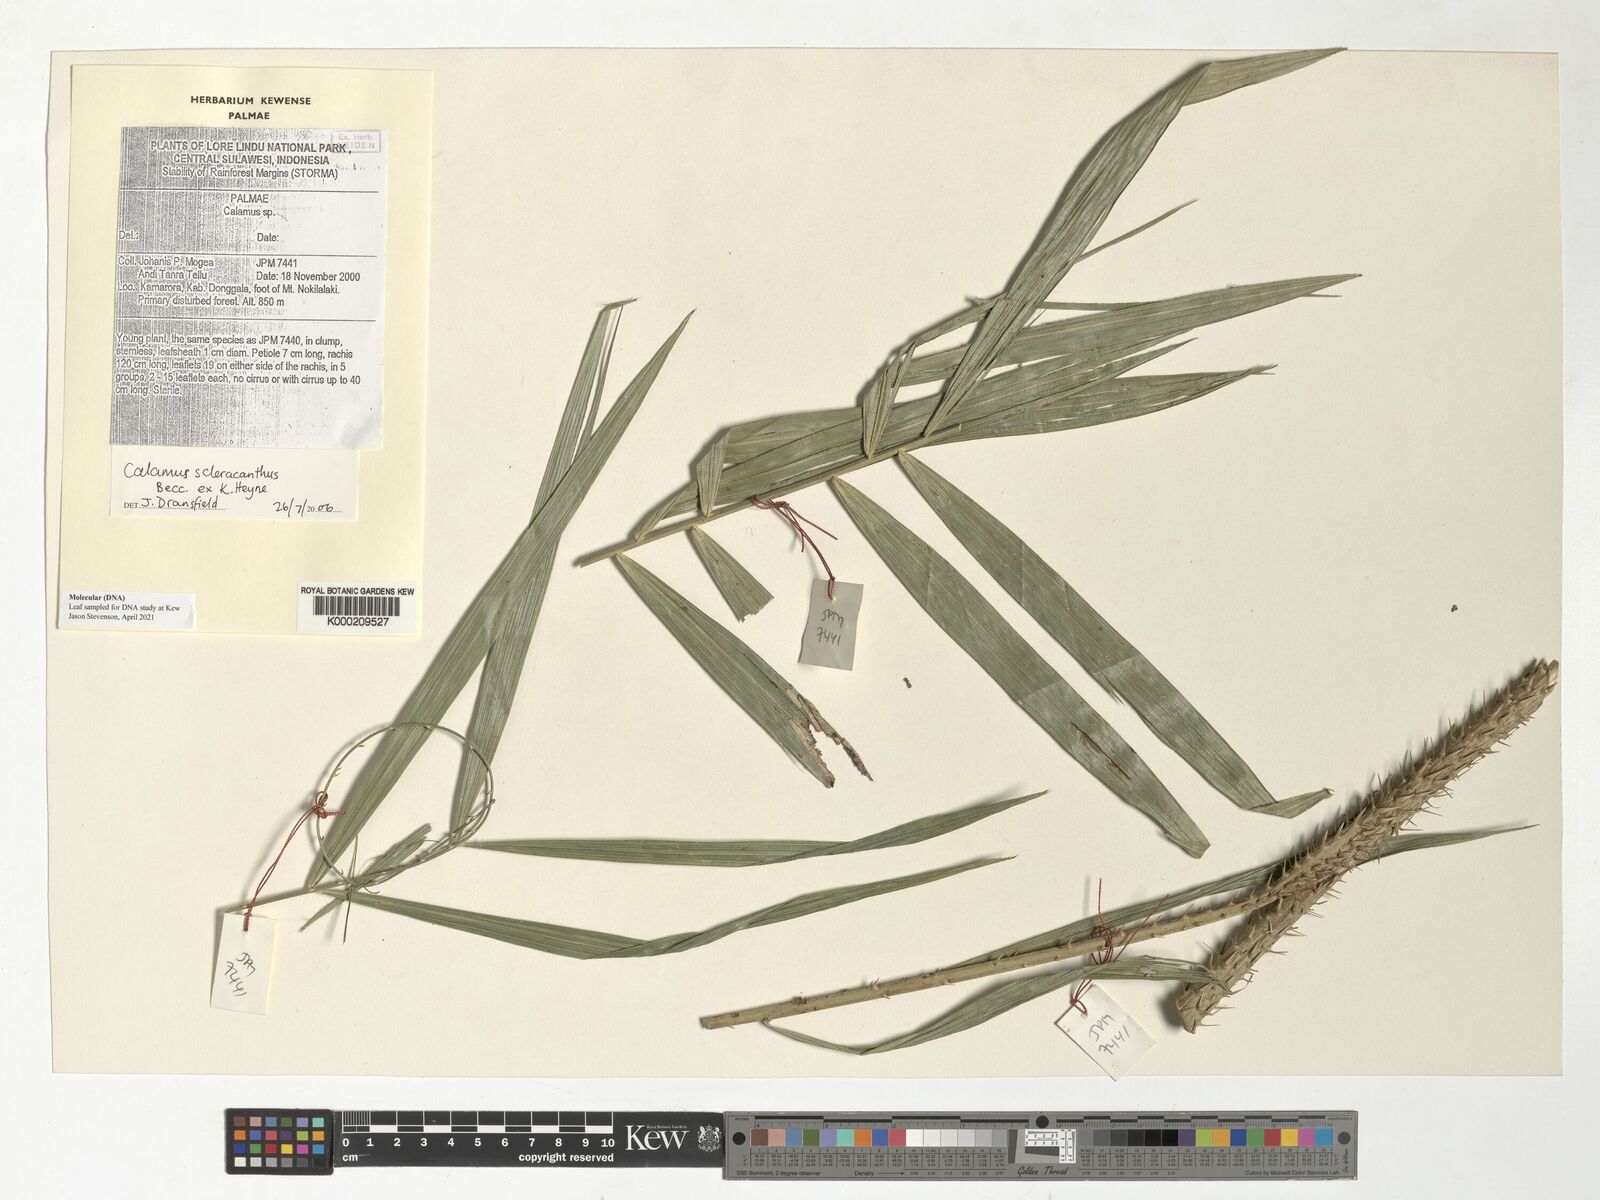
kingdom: Plantae
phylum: Tracheophyta
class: Liliopsida
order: Arecales
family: Arecaceae
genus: Calamus
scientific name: Calamus scleracanthus
